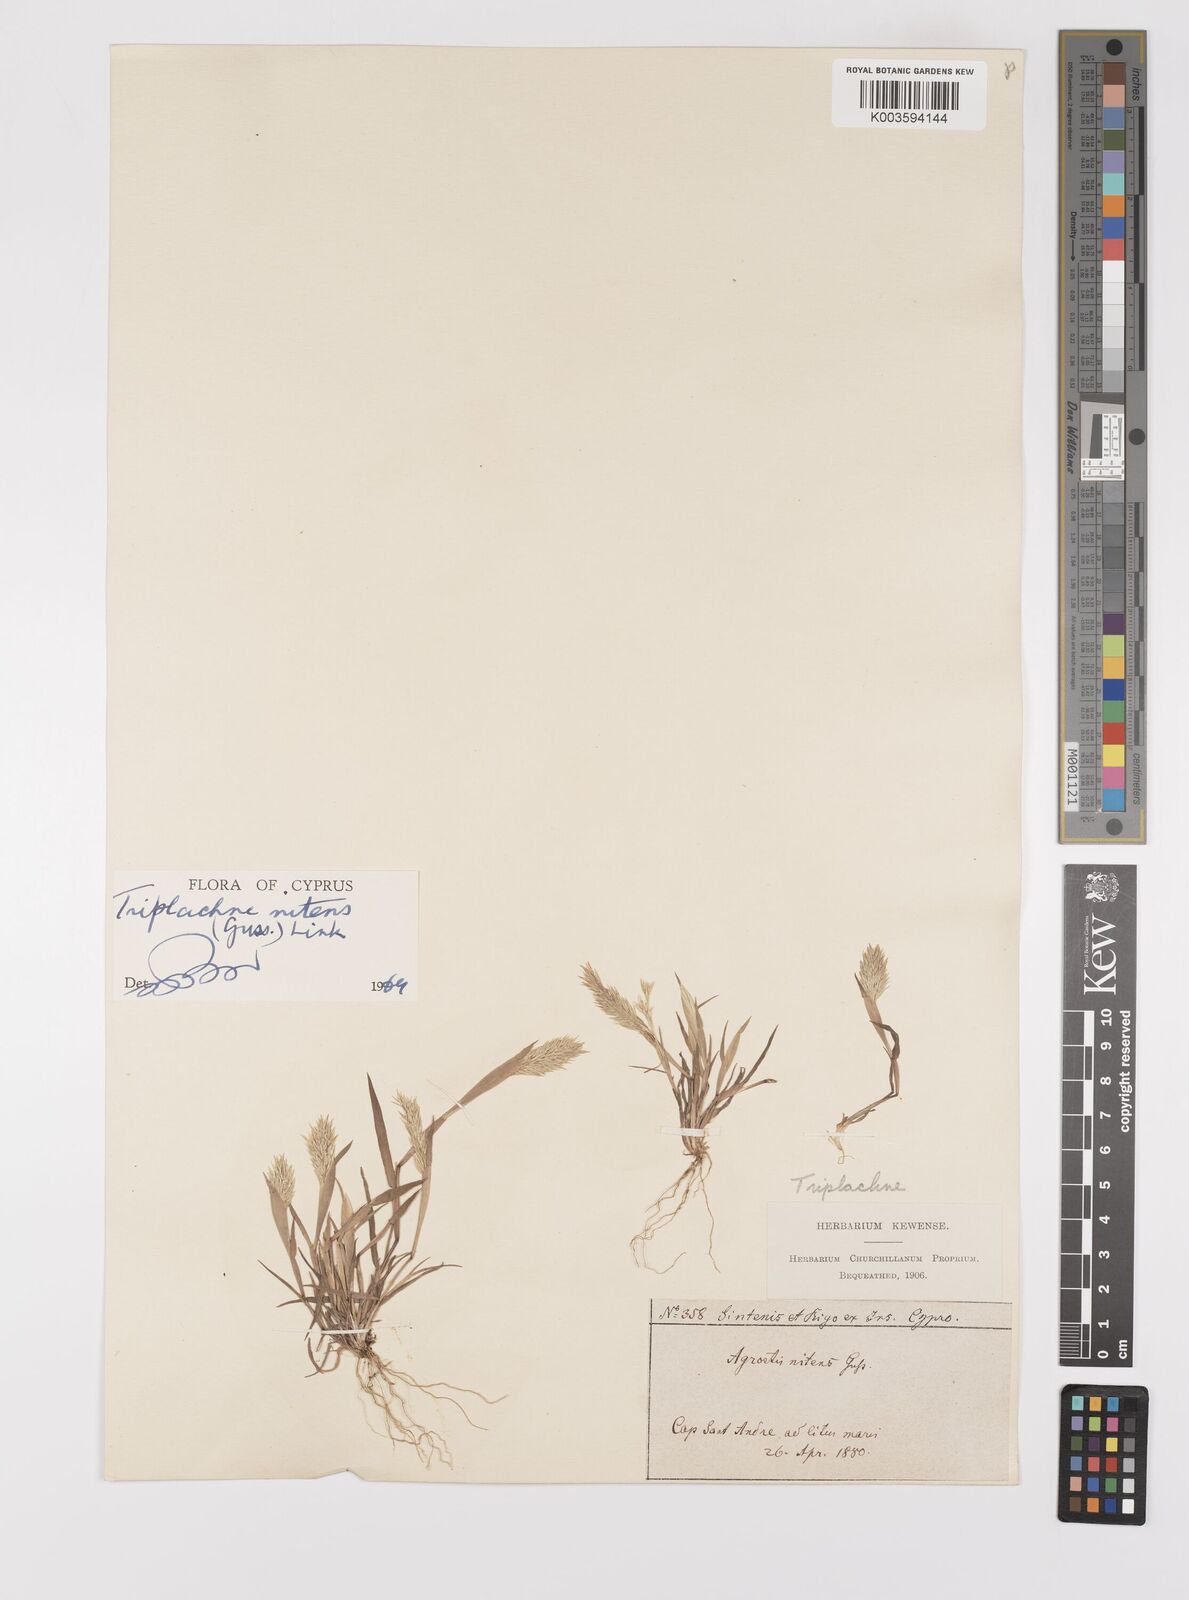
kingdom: Plantae
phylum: Tracheophyta
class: Liliopsida
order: Poales
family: Poaceae
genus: Triplachne
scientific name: Triplachne nitens
